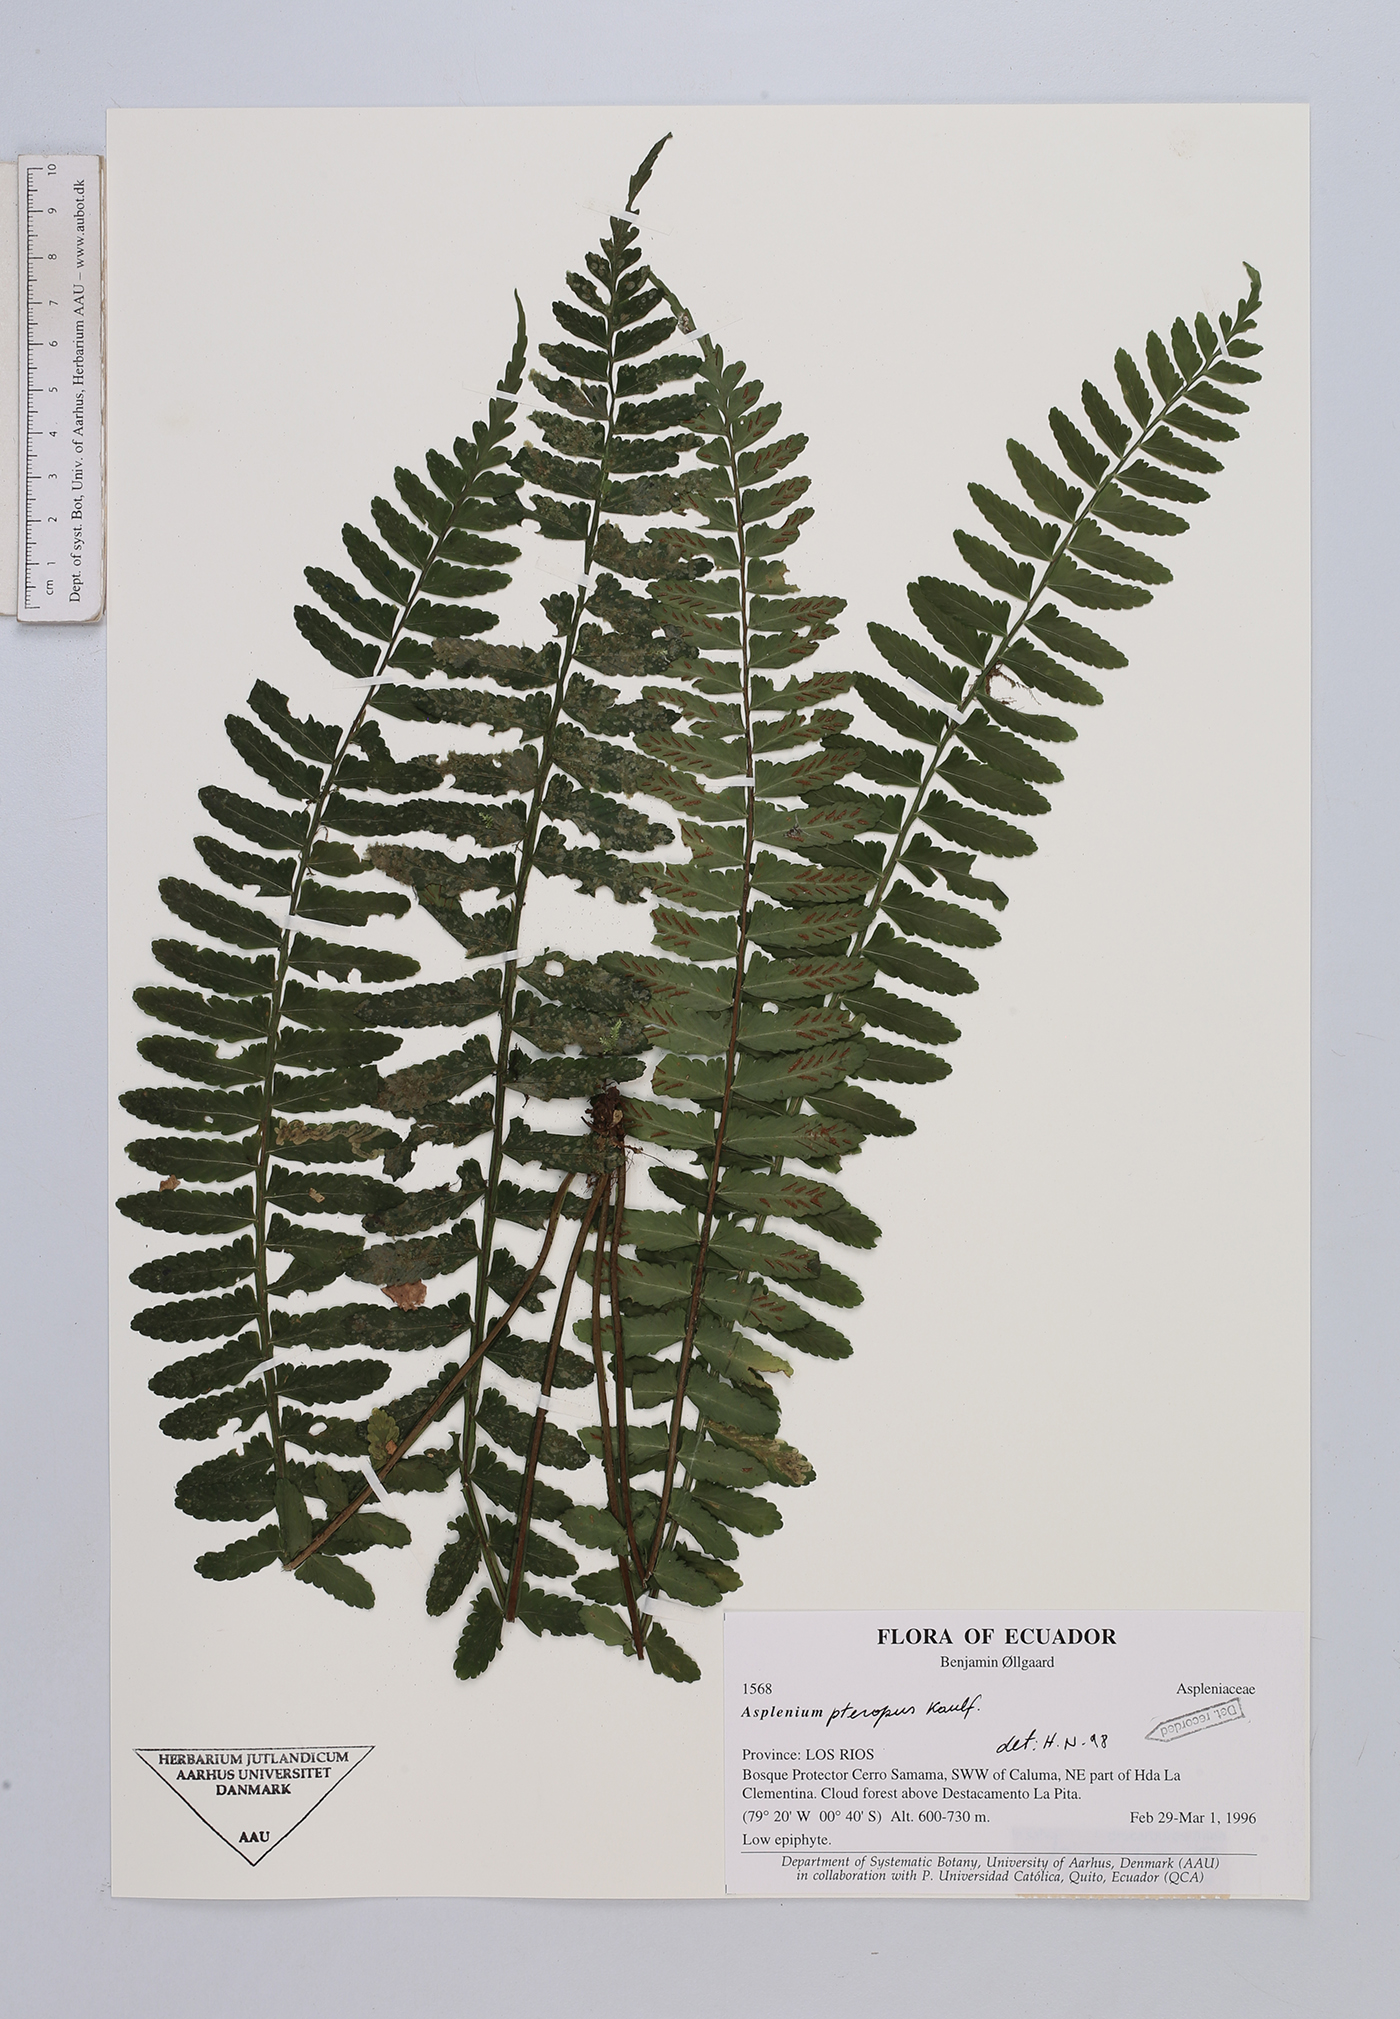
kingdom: Plantae
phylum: Tracheophyta
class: Polypodiopsida
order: Polypodiales
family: Aspleniaceae
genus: Asplenium
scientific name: Asplenium pteropus
